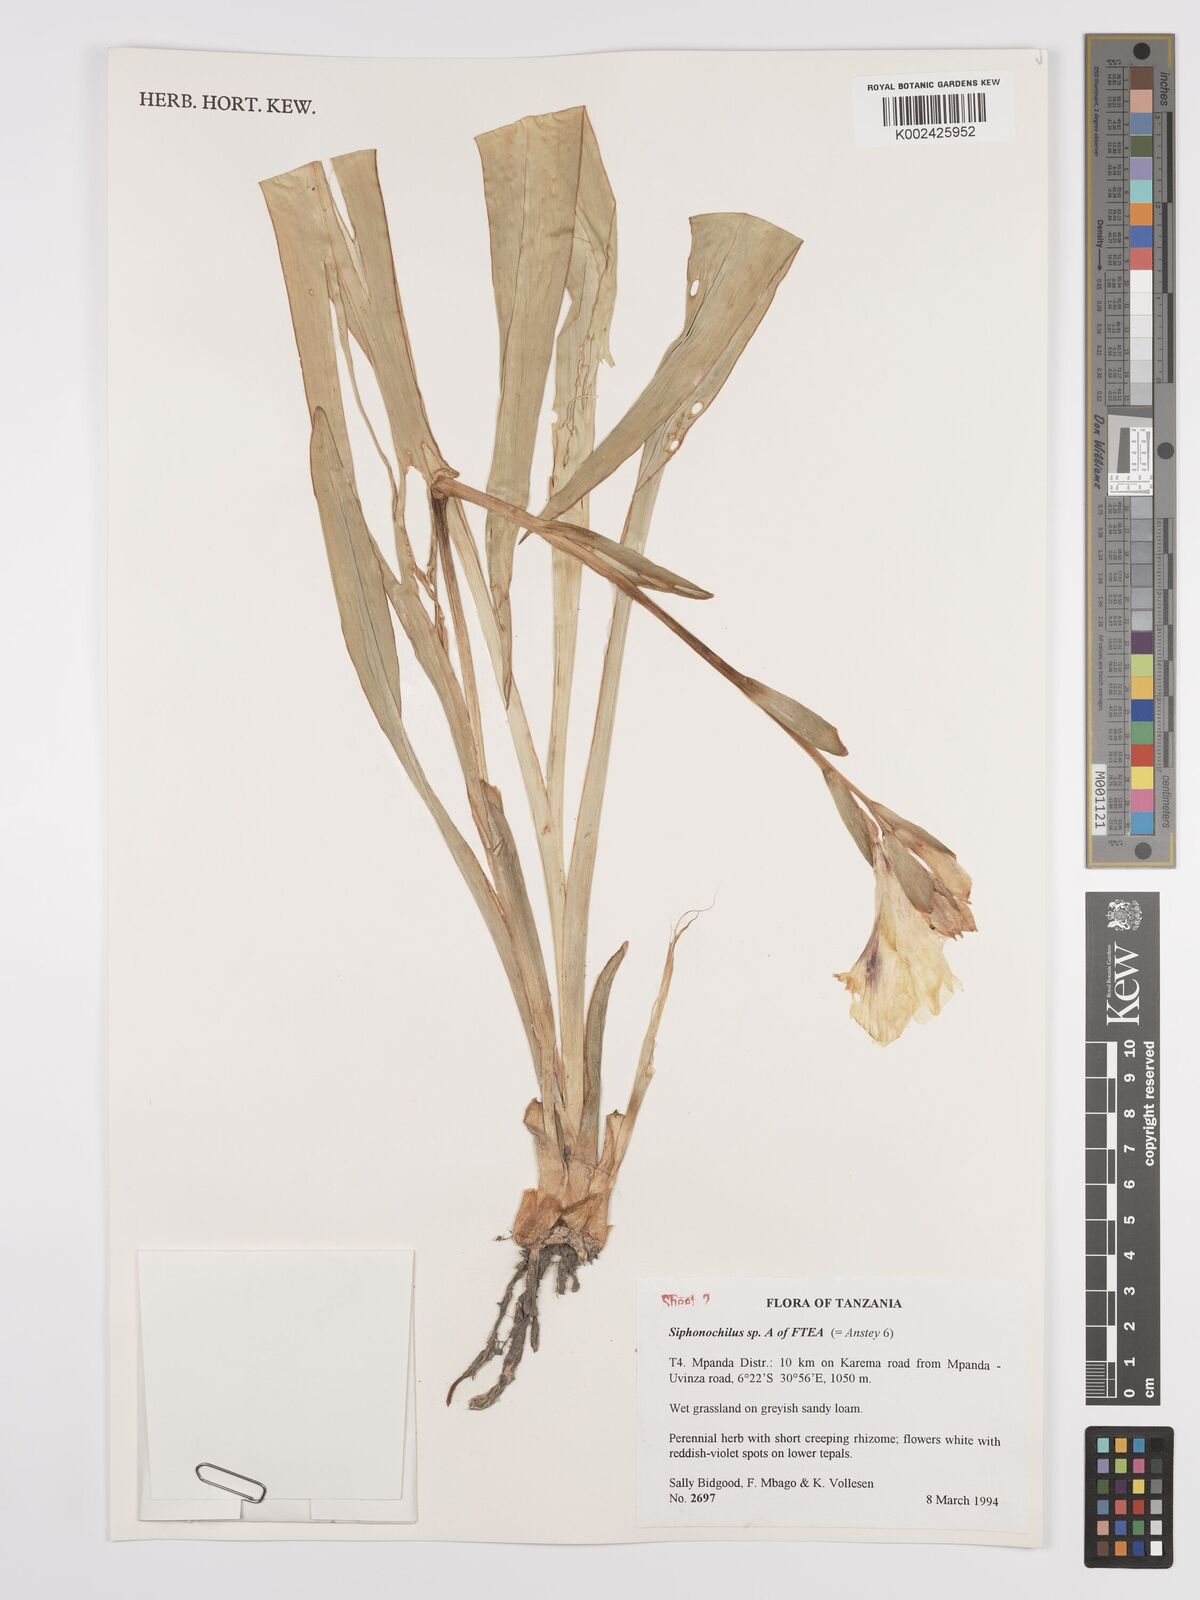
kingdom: Plantae
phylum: Tracheophyta
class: Liliopsida
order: Zingiberales
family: Zingiberaceae
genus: Siphonochilus
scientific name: Siphonochilus
